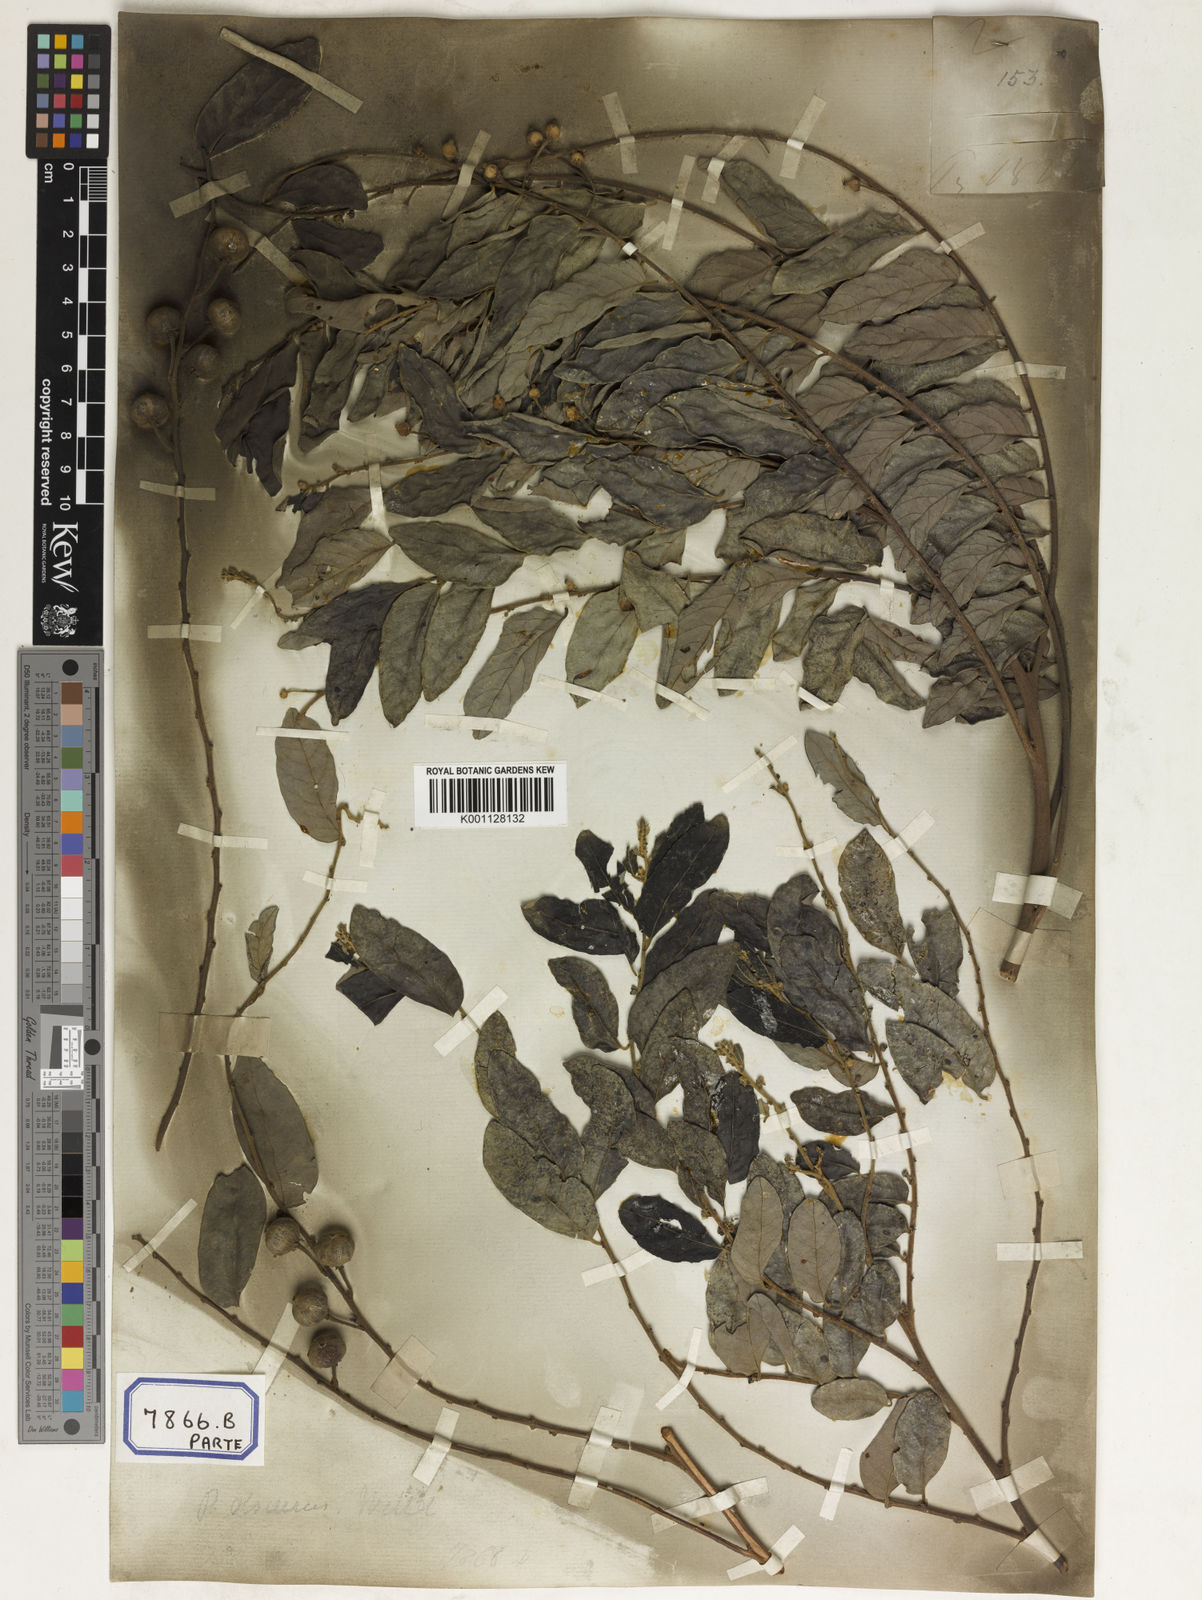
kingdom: Plantae
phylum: Tracheophyta
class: Magnoliopsida
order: Malpighiales
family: Euphorbiaceae
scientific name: Euphorbiaceae
